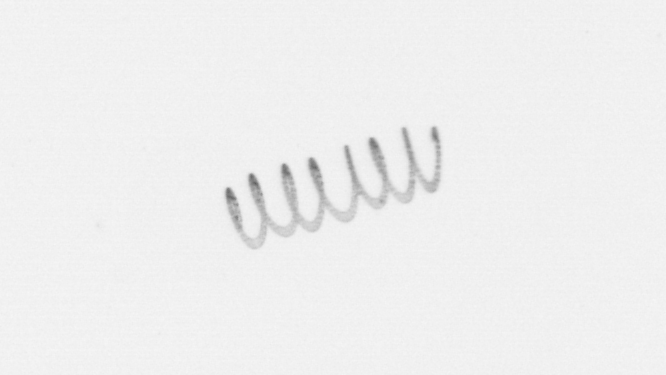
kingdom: Chromista
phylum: Ochrophyta
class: Bacillariophyceae
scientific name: Bacillariophyceae
